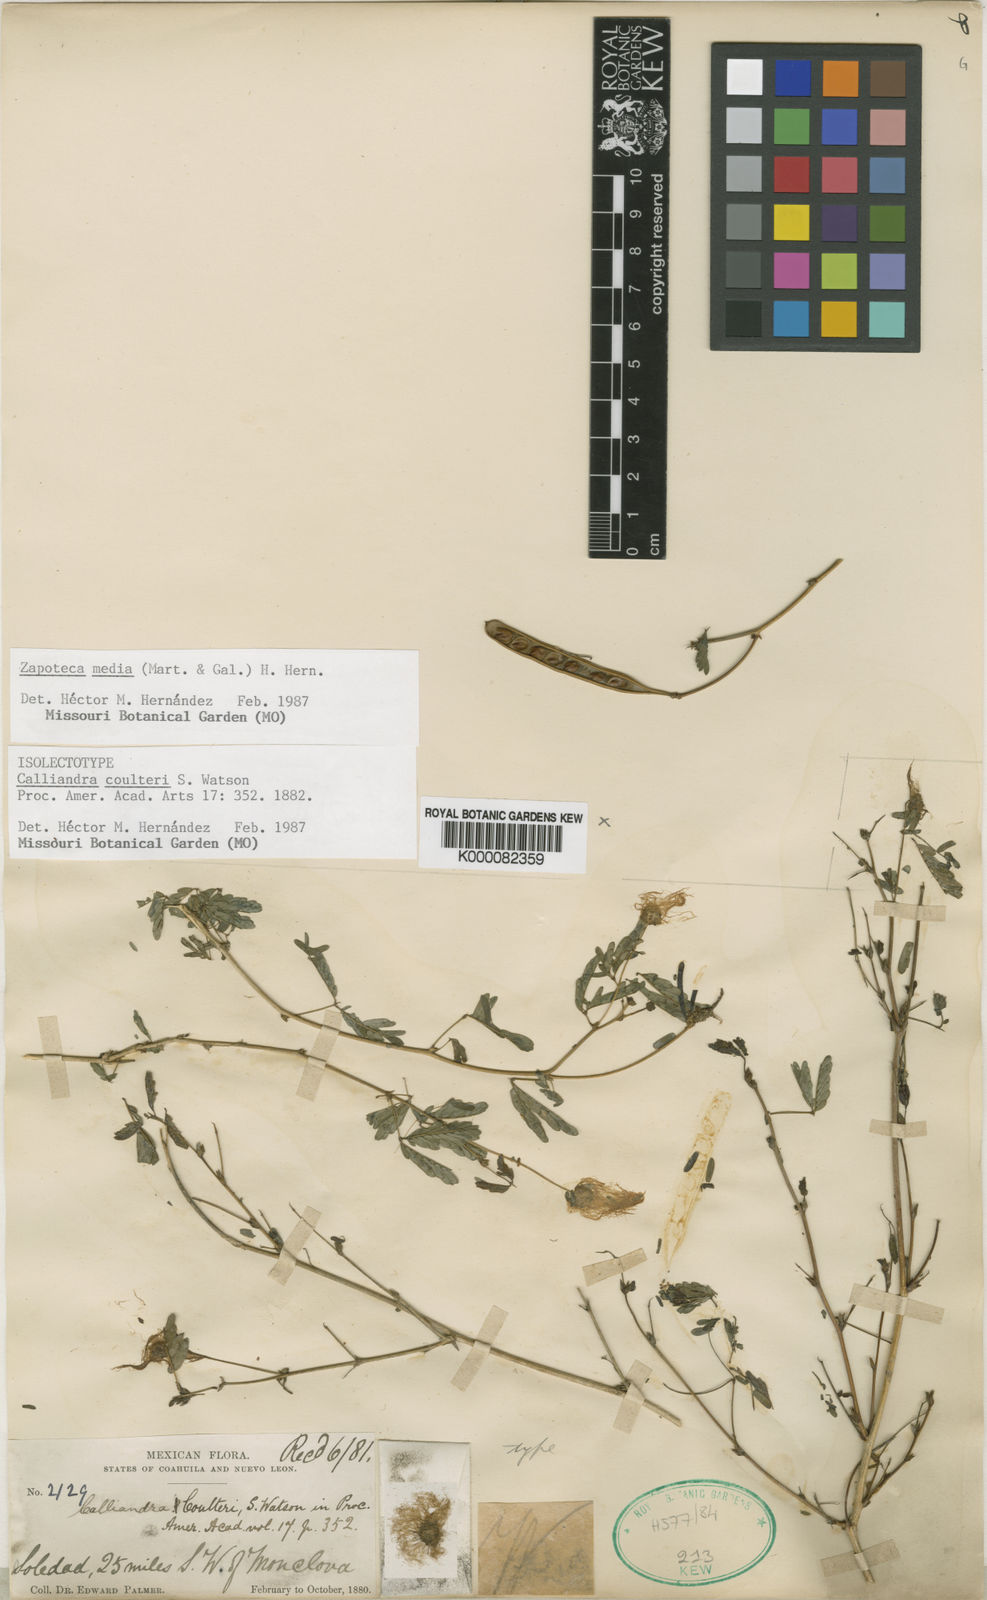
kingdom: Plantae
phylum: Tracheophyta
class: Magnoliopsida
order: Fabales
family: Fabaceae
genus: Zapoteca
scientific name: Zapoteca media
